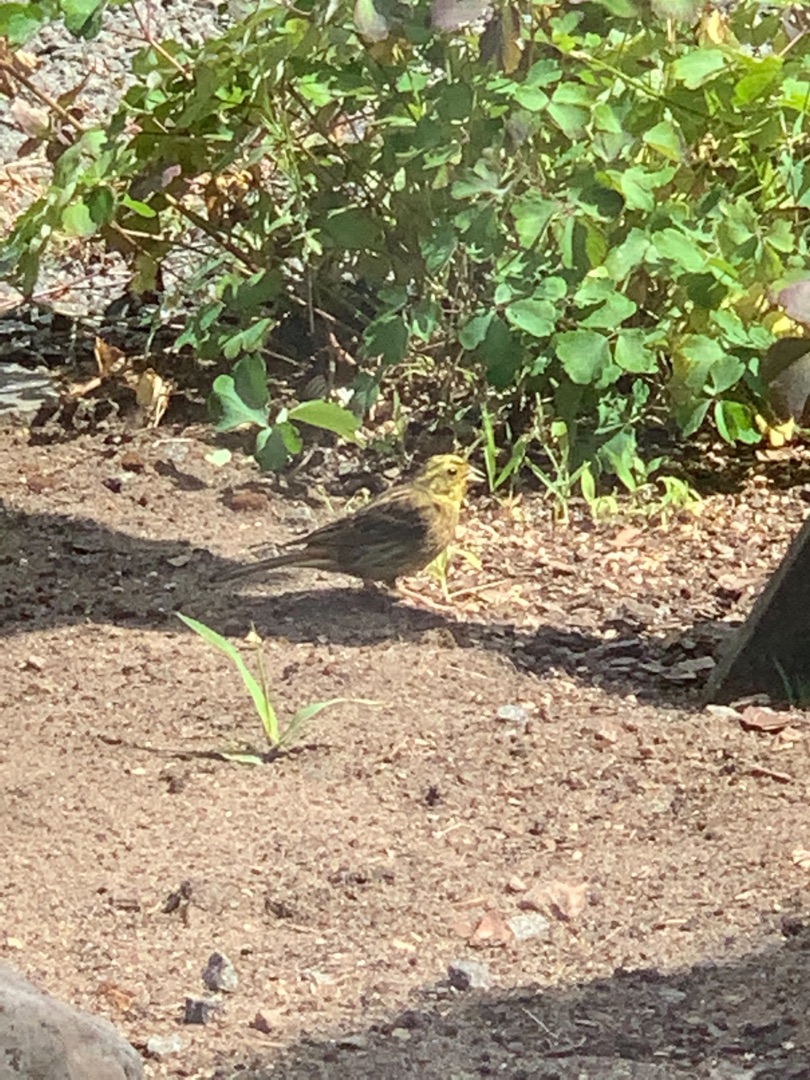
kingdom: Animalia
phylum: Chordata
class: Aves
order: Passeriformes
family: Emberizidae
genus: Emberiza
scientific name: Emberiza citrinella
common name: Gulspurv
